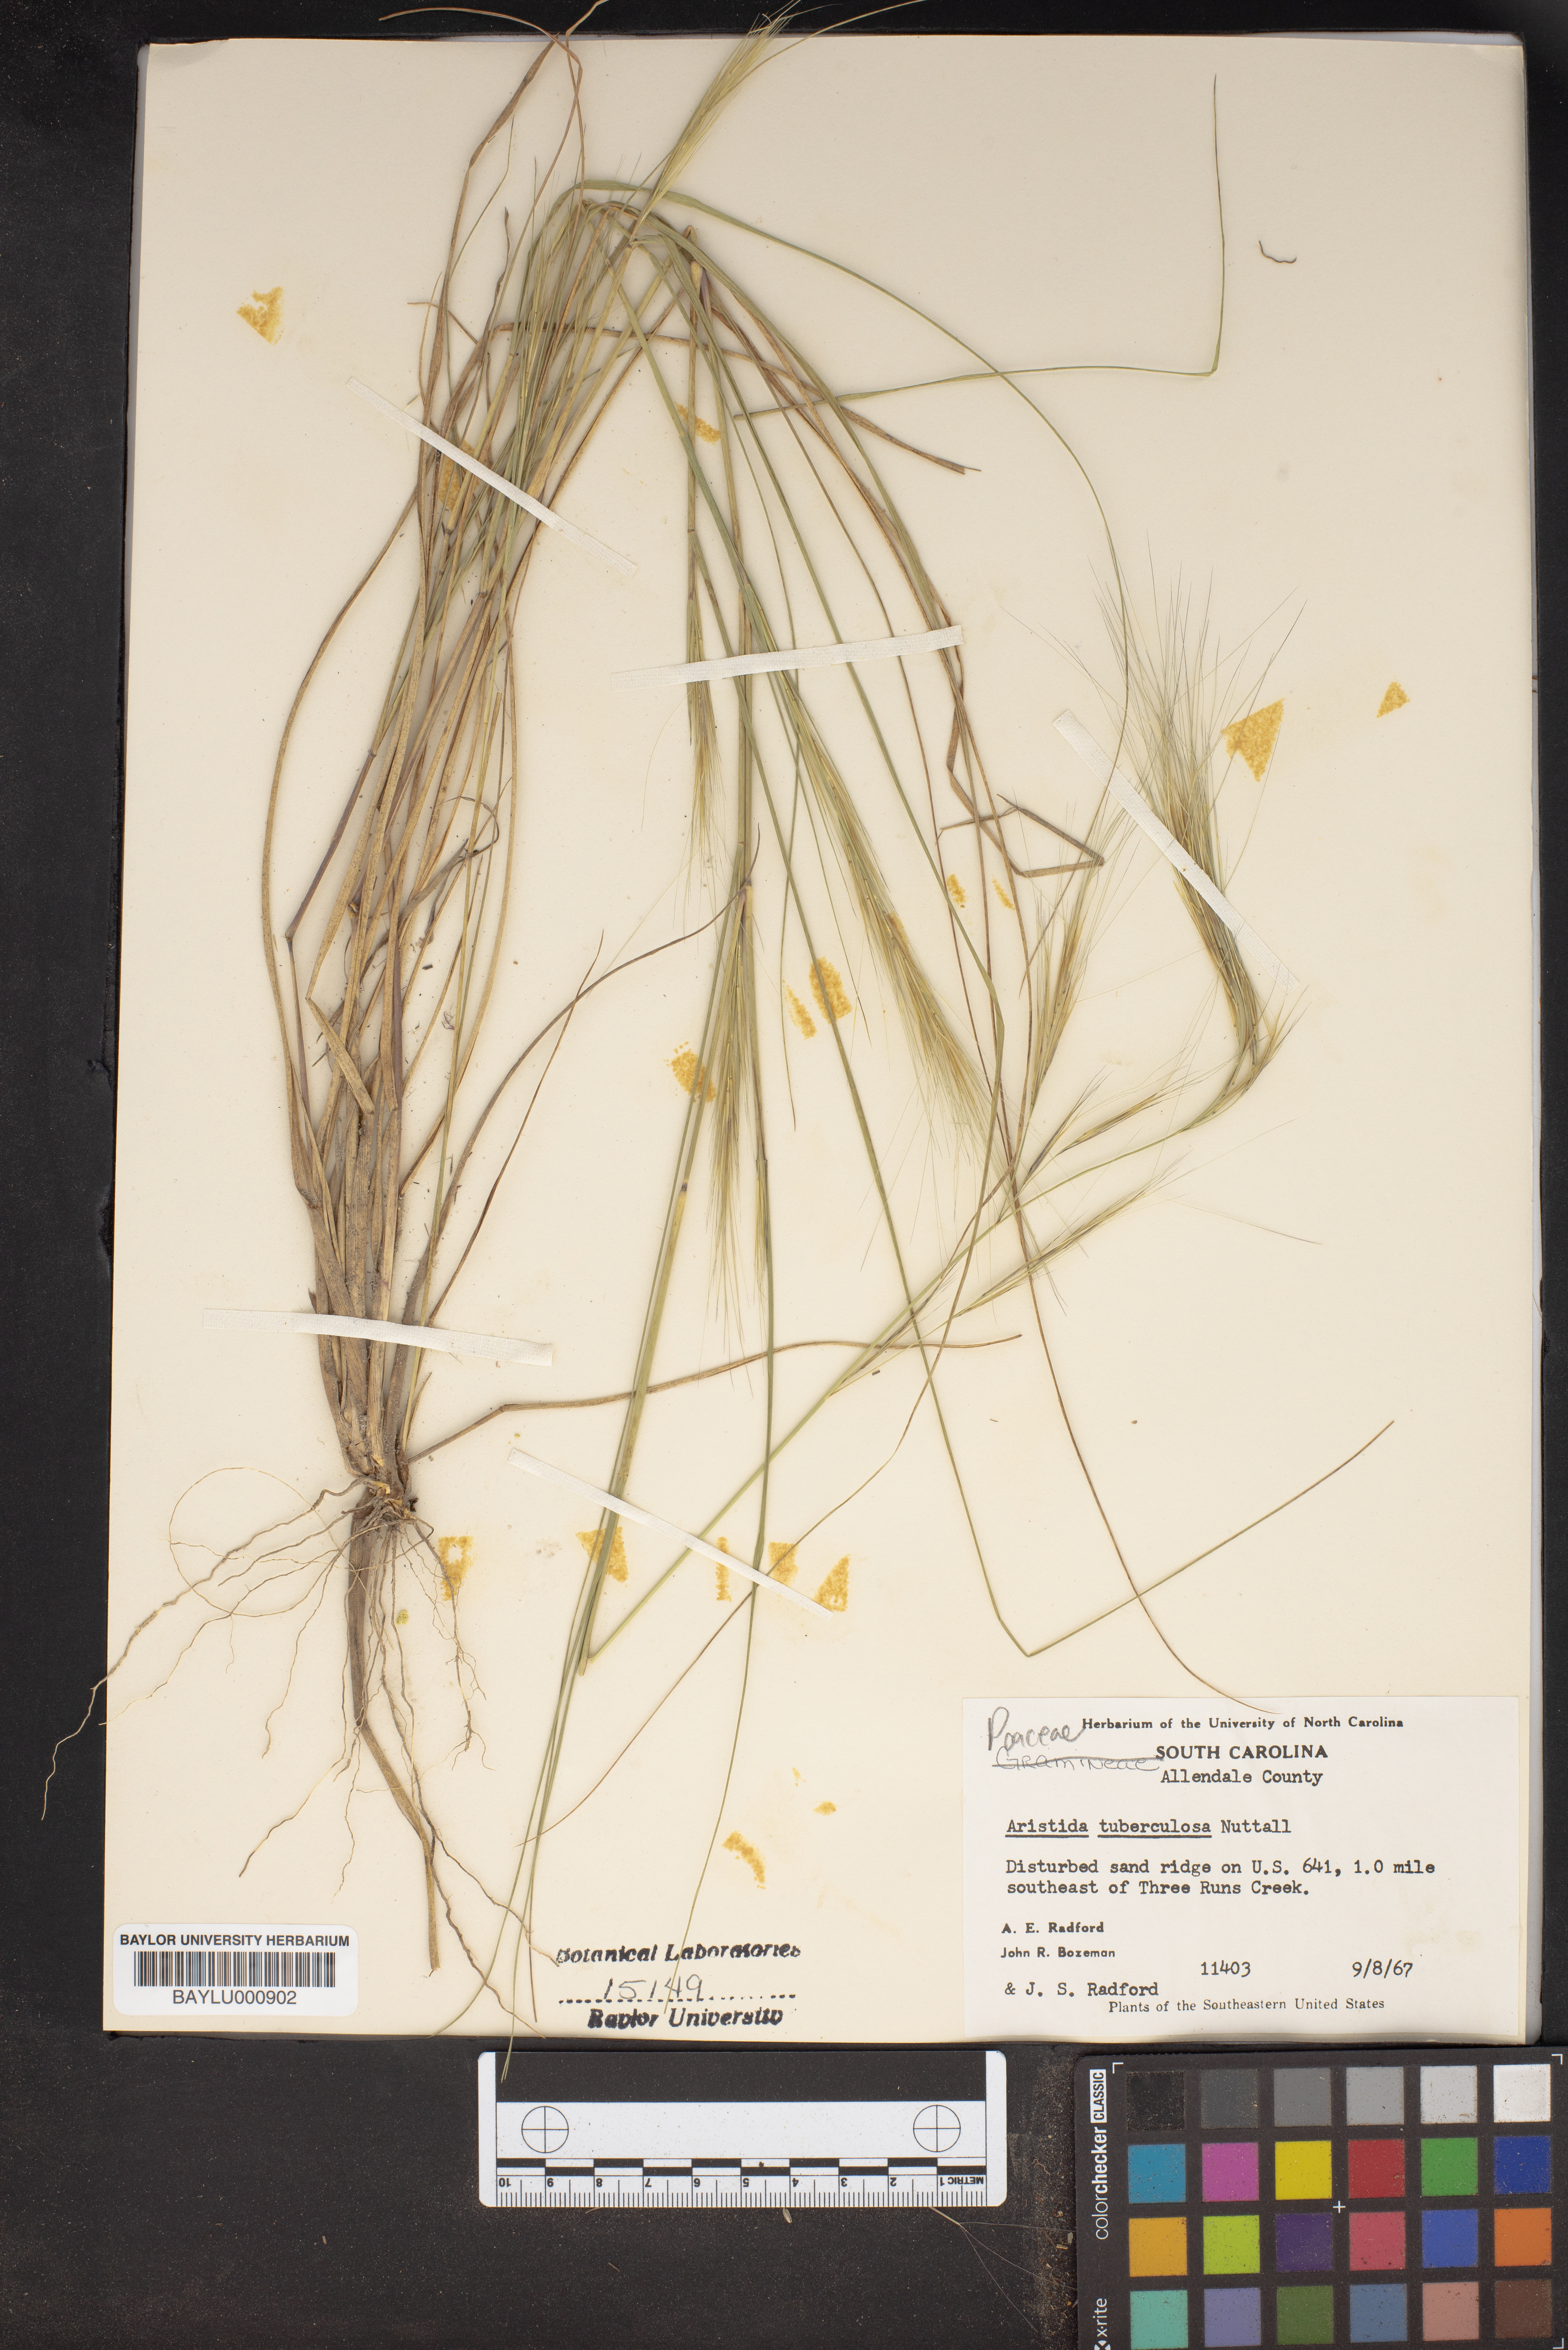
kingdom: Plantae
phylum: Tracheophyta
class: Liliopsida
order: Poales
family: Poaceae
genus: Aristida
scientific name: Aristida tuberculosa
